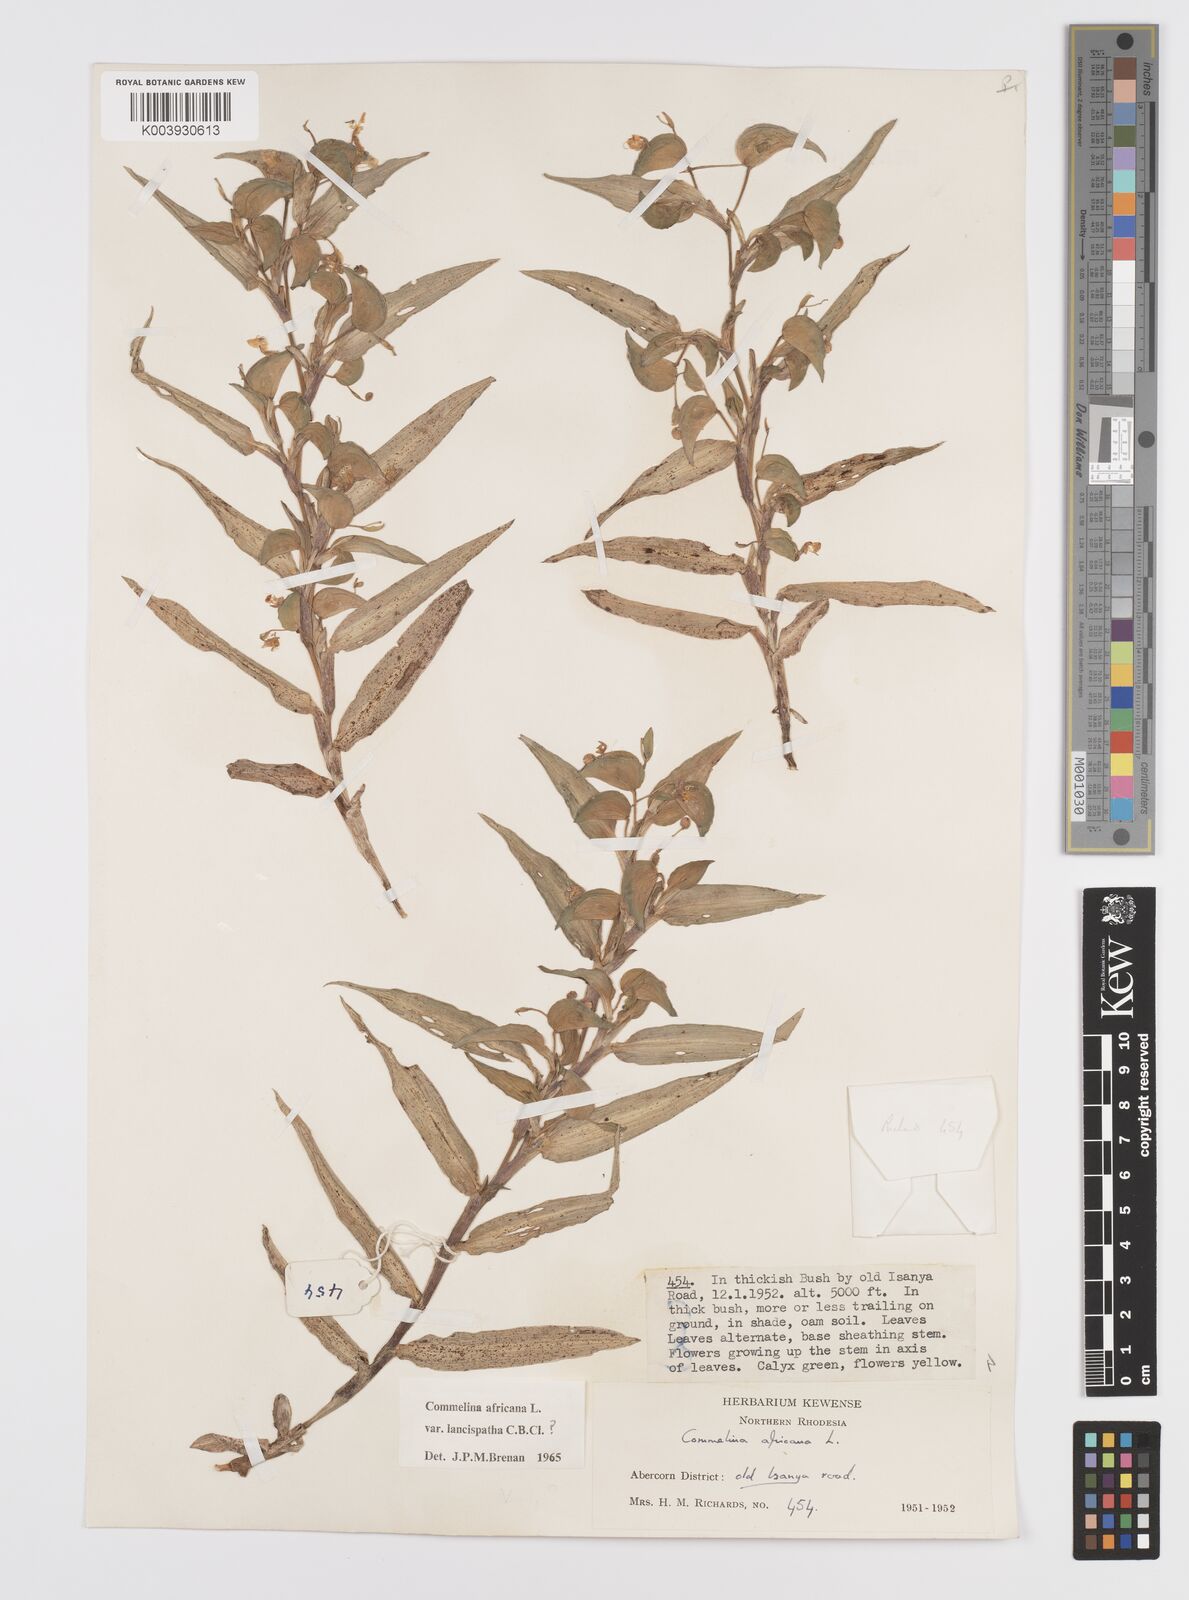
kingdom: Plantae
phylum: Tracheophyta
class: Liliopsida
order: Commelinales
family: Commelinaceae
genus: Commelina
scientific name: Commelina africana
